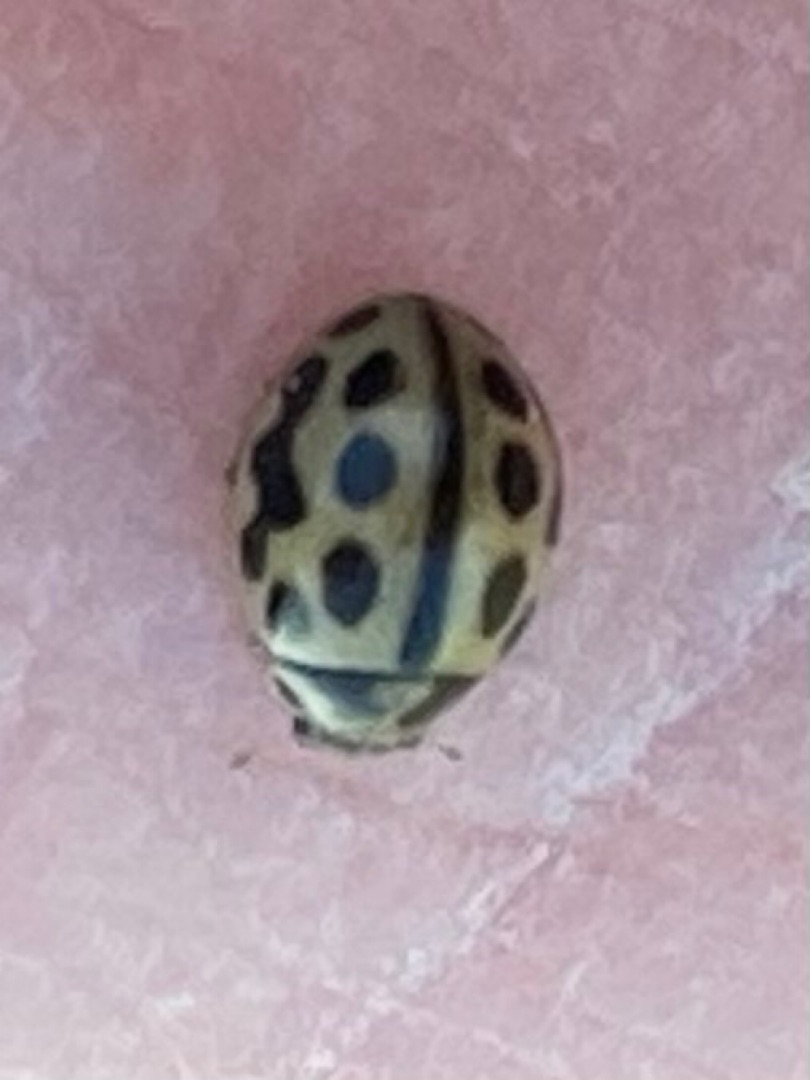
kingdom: Animalia
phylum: Arthropoda
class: Insecta
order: Coleoptera
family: Coccinellidae
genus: Tytthaspis
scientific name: Tytthaspis sedecimpunctata
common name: Sekstenprikket mariehøne
